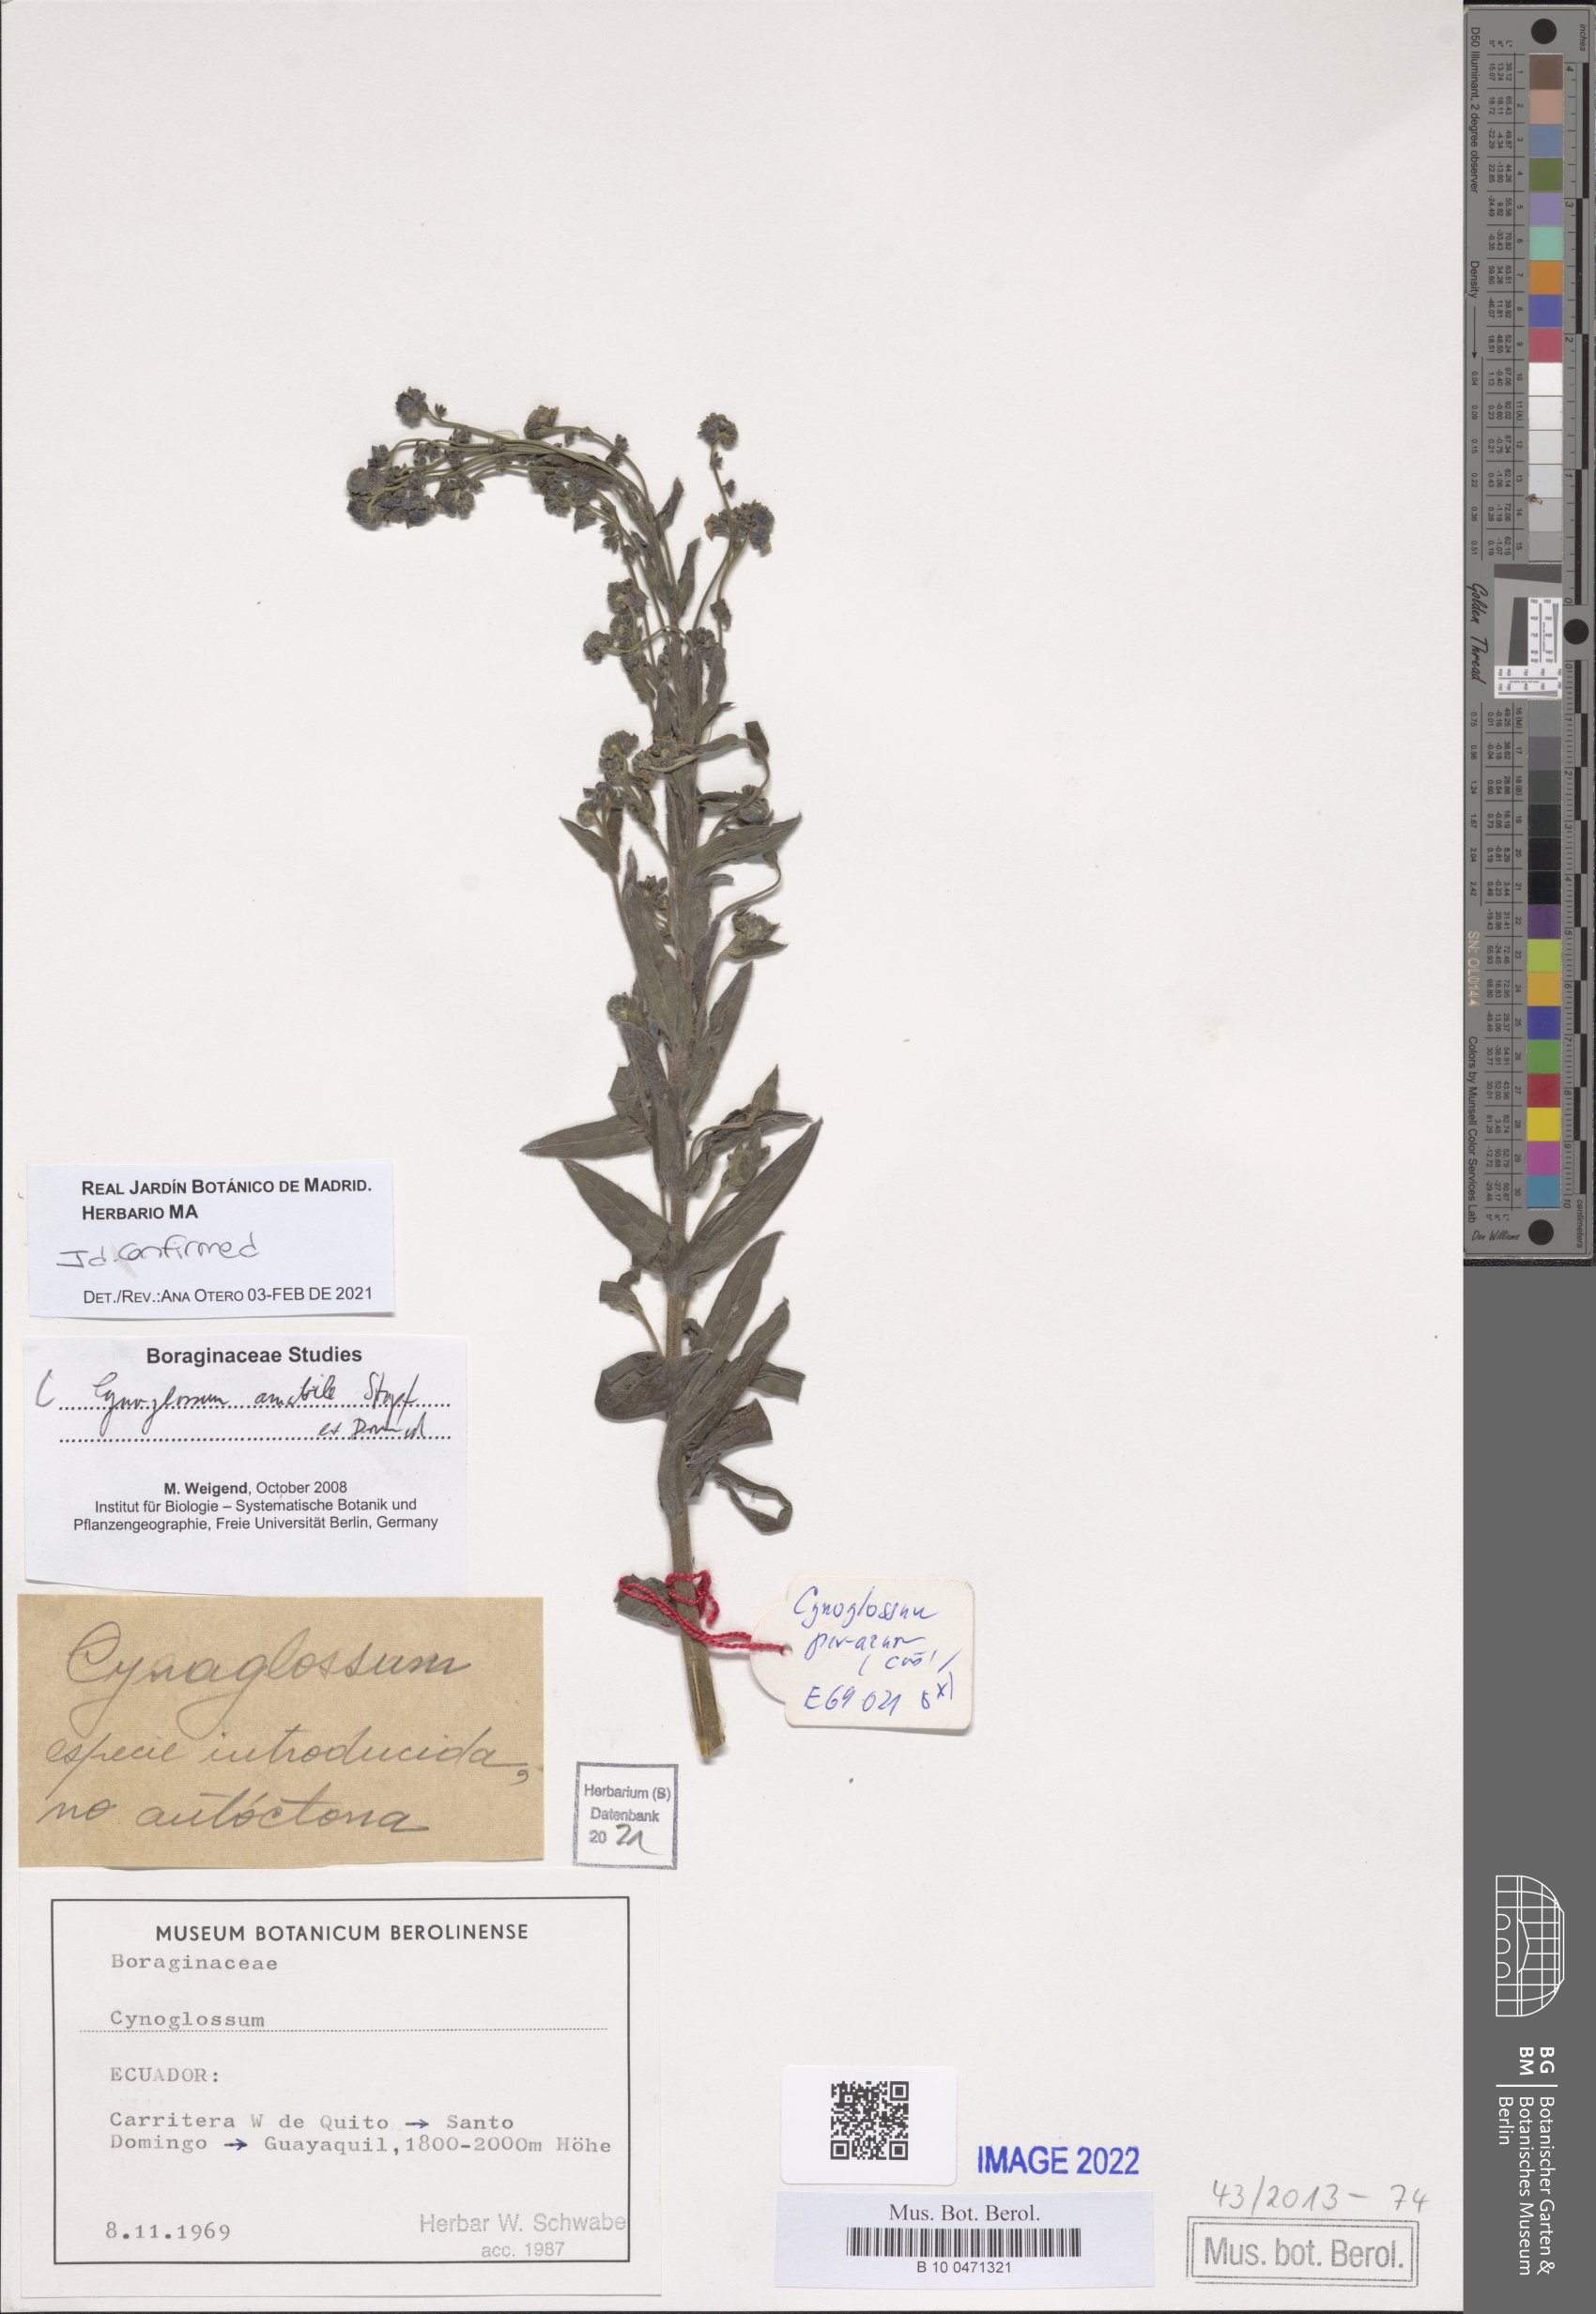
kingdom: Plantae
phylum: Tracheophyta
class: Magnoliopsida
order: Boraginales
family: Boraginaceae
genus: Cynoglossum
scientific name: Cynoglossum amabile
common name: Chinese hound's tongue
